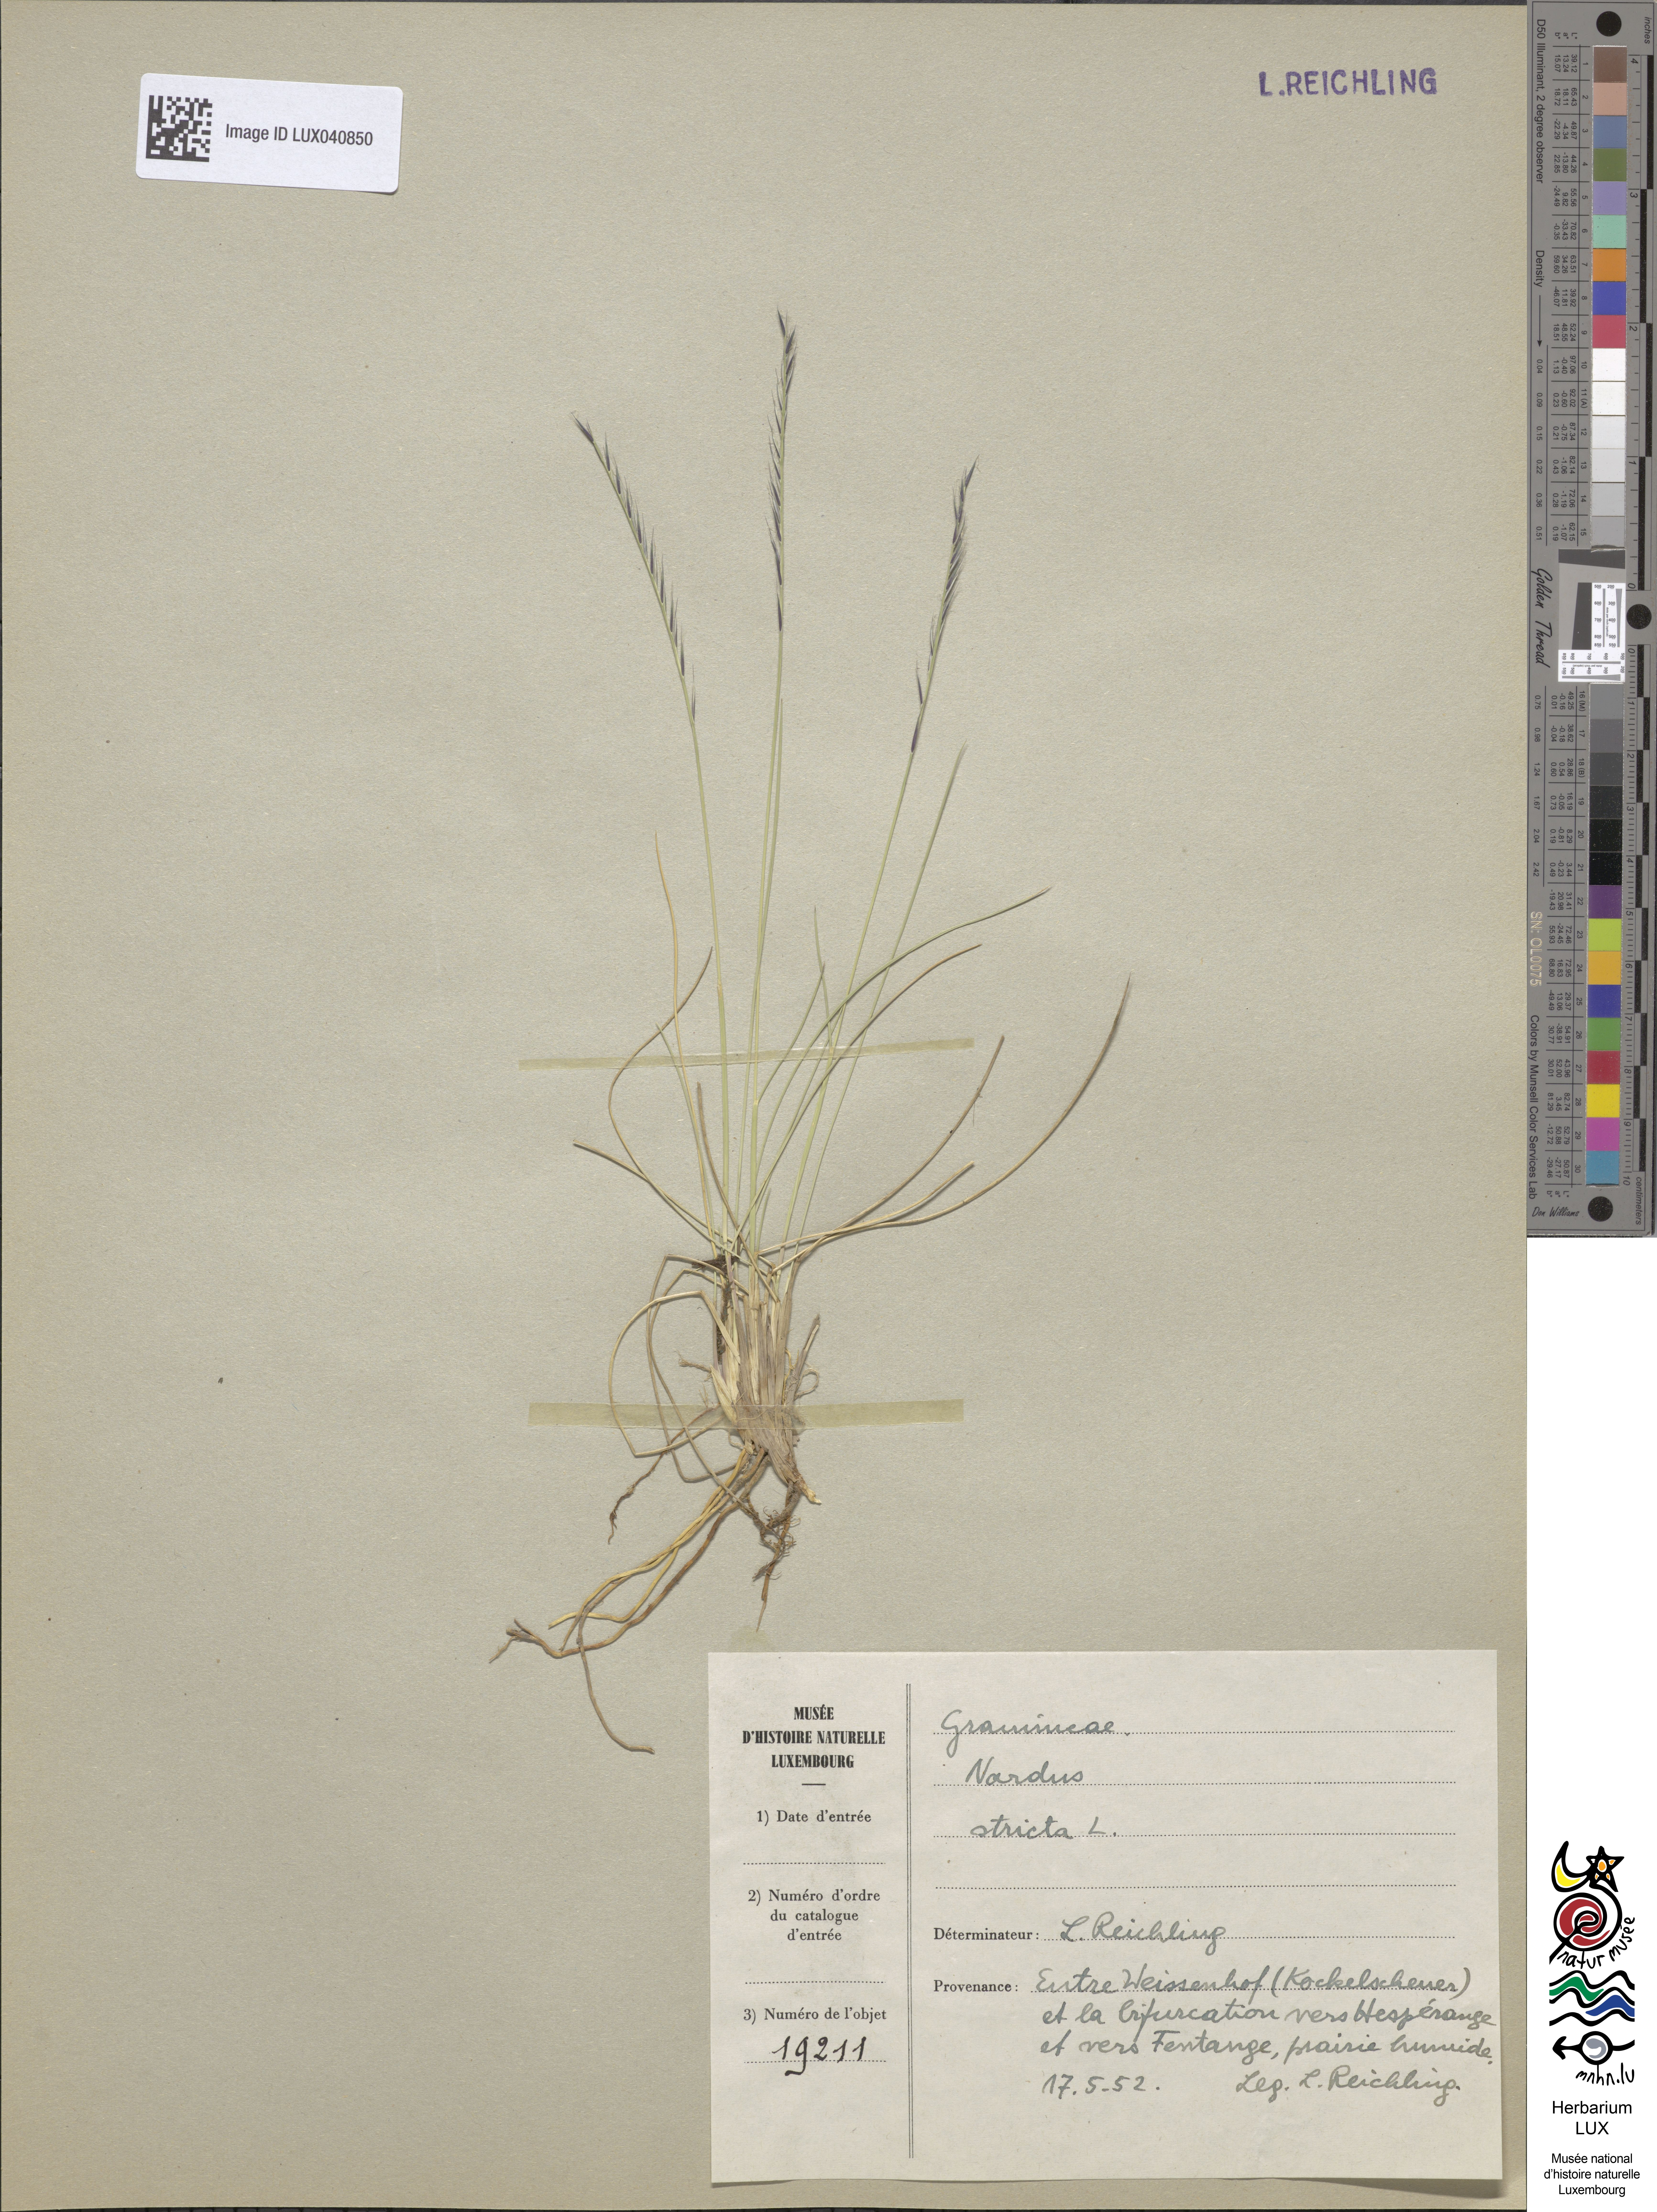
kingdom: Plantae
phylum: Tracheophyta
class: Liliopsida
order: Poales
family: Poaceae
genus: Nardus
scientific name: Nardus stricta
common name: Mat-grass
